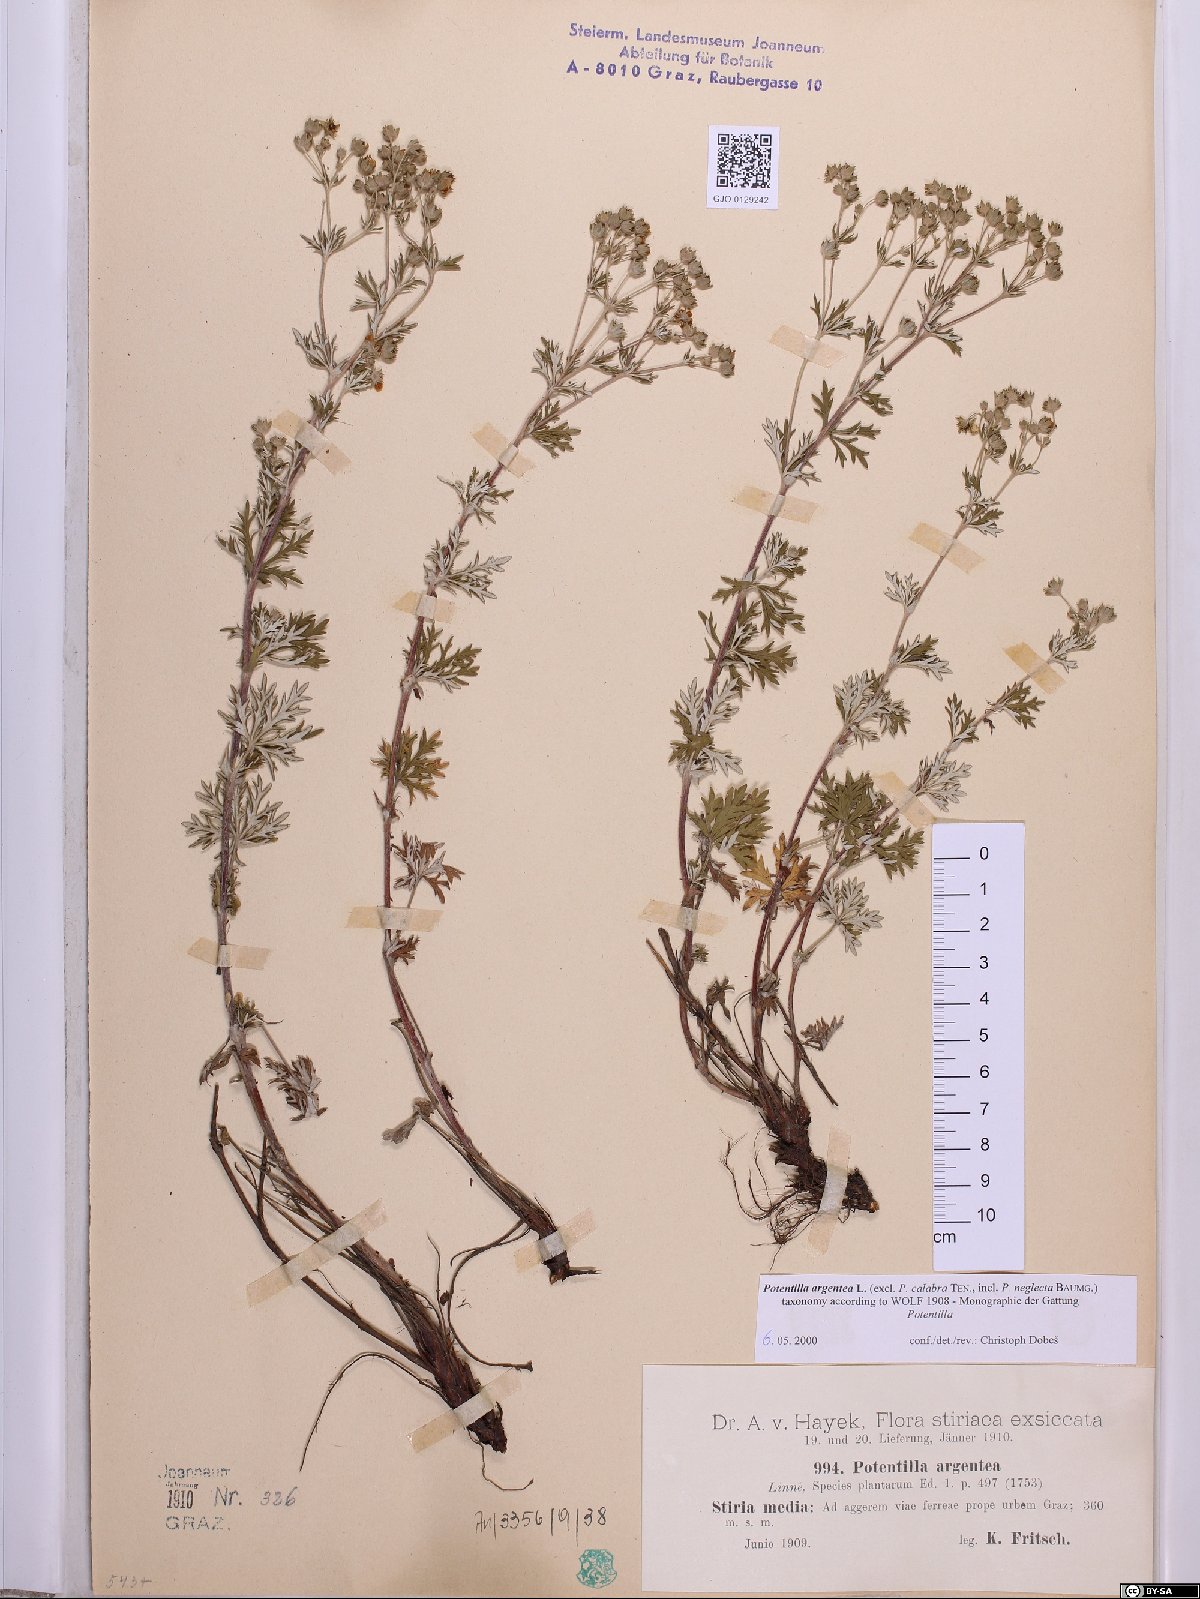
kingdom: Plantae
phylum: Tracheophyta
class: Magnoliopsida
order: Rosales
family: Rosaceae
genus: Potentilla
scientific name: Potentilla argentea
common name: Hoary cinquefoil
